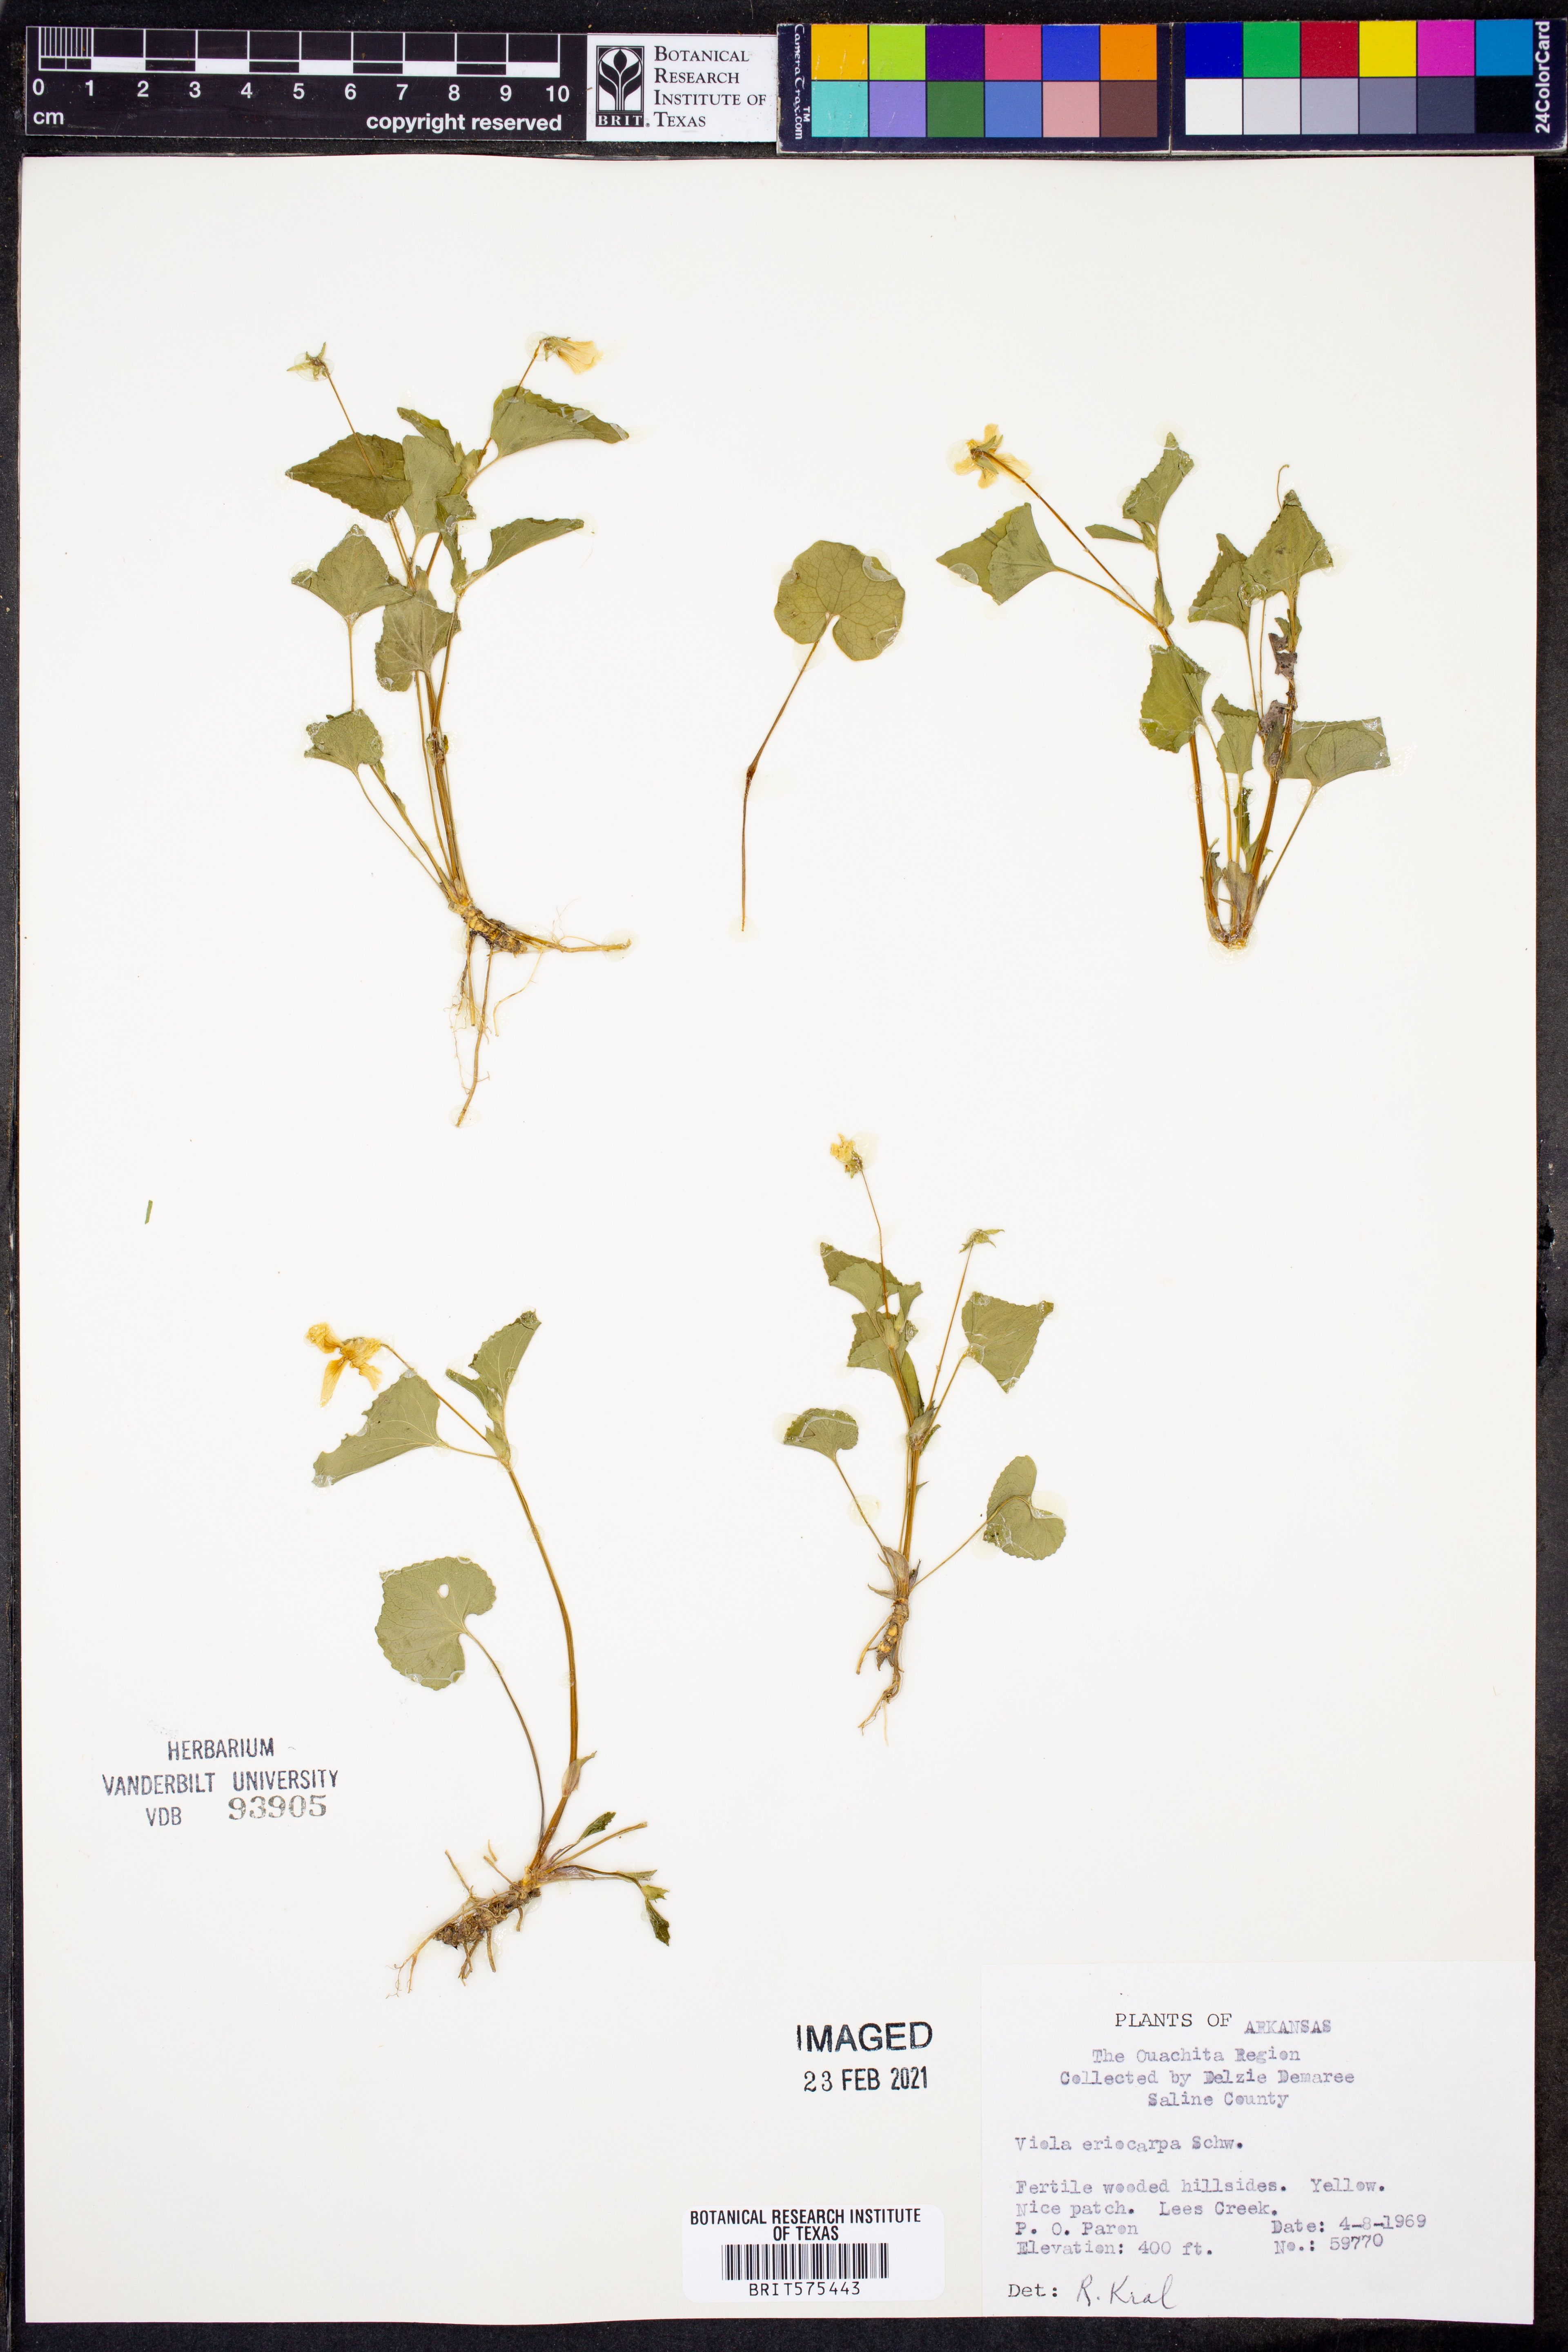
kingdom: Plantae
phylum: Tracheophyta
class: Magnoliopsida
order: Malpighiales
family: Violaceae
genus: Viola
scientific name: Viola eriocarpa
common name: Smooth yellow violet
